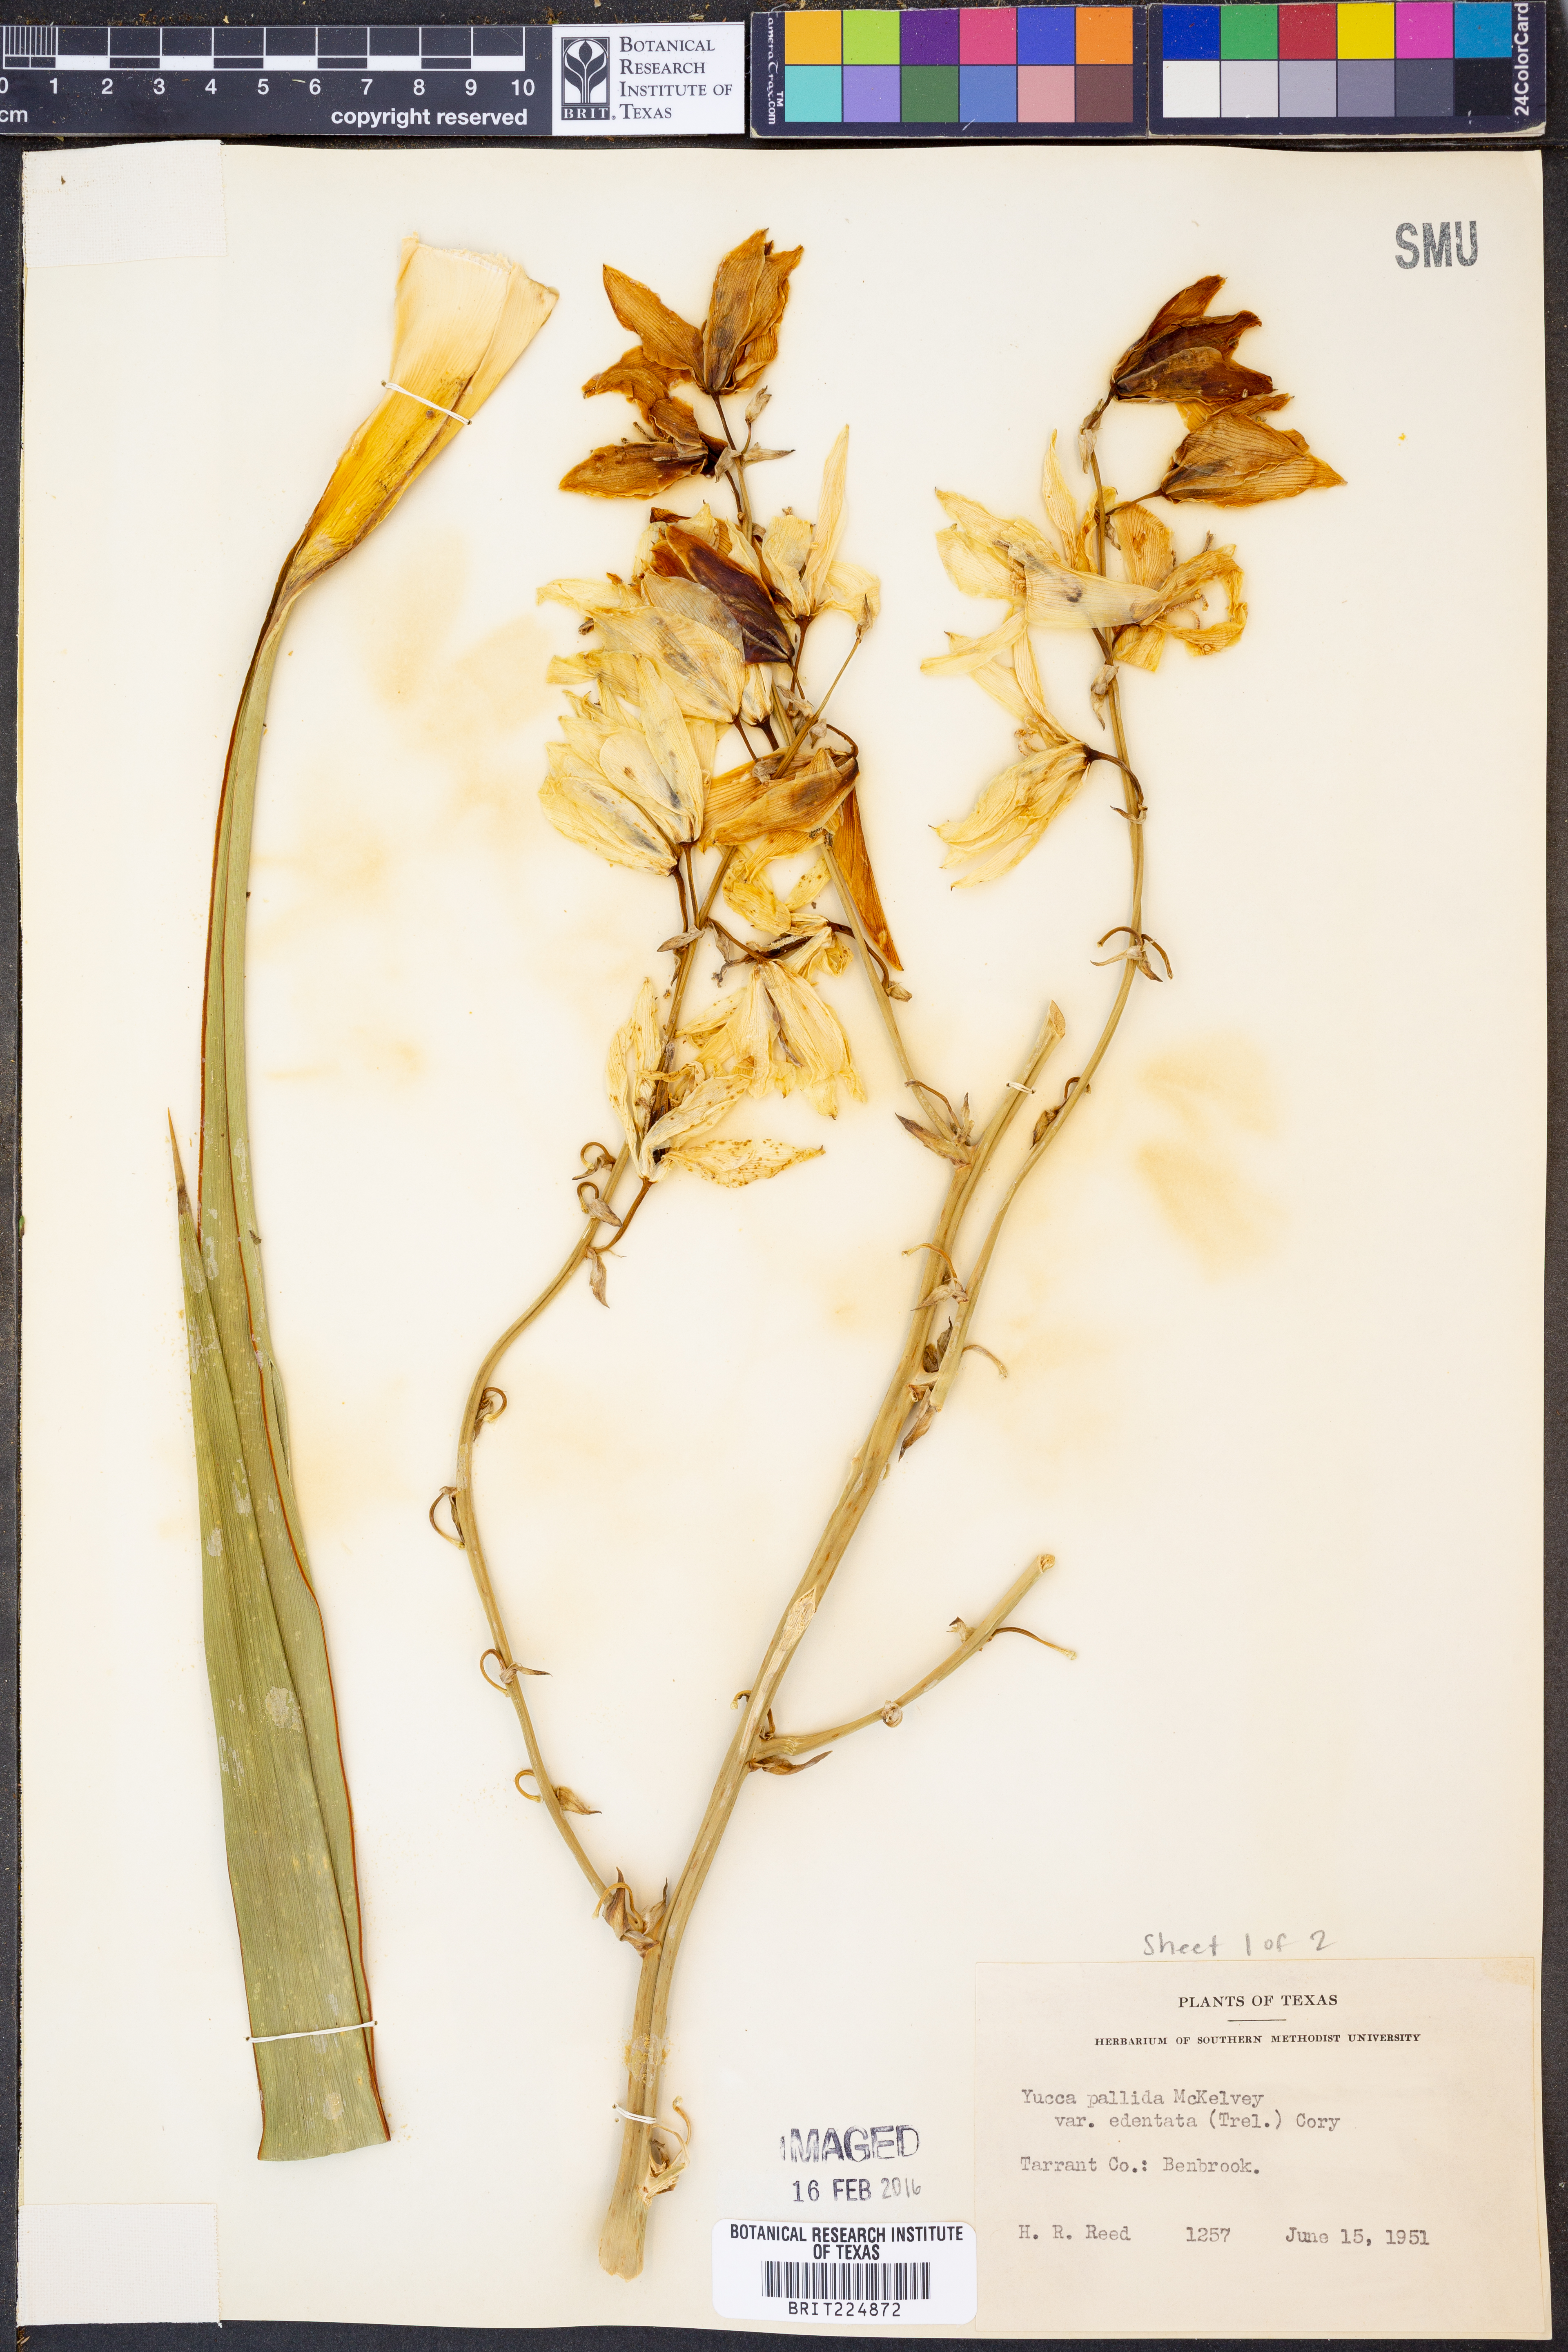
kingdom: Plantae
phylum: Tracheophyta
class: Liliopsida
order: Asparagales
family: Asparagaceae
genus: Yucca
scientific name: Yucca pallida
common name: Pale leaf yucca
